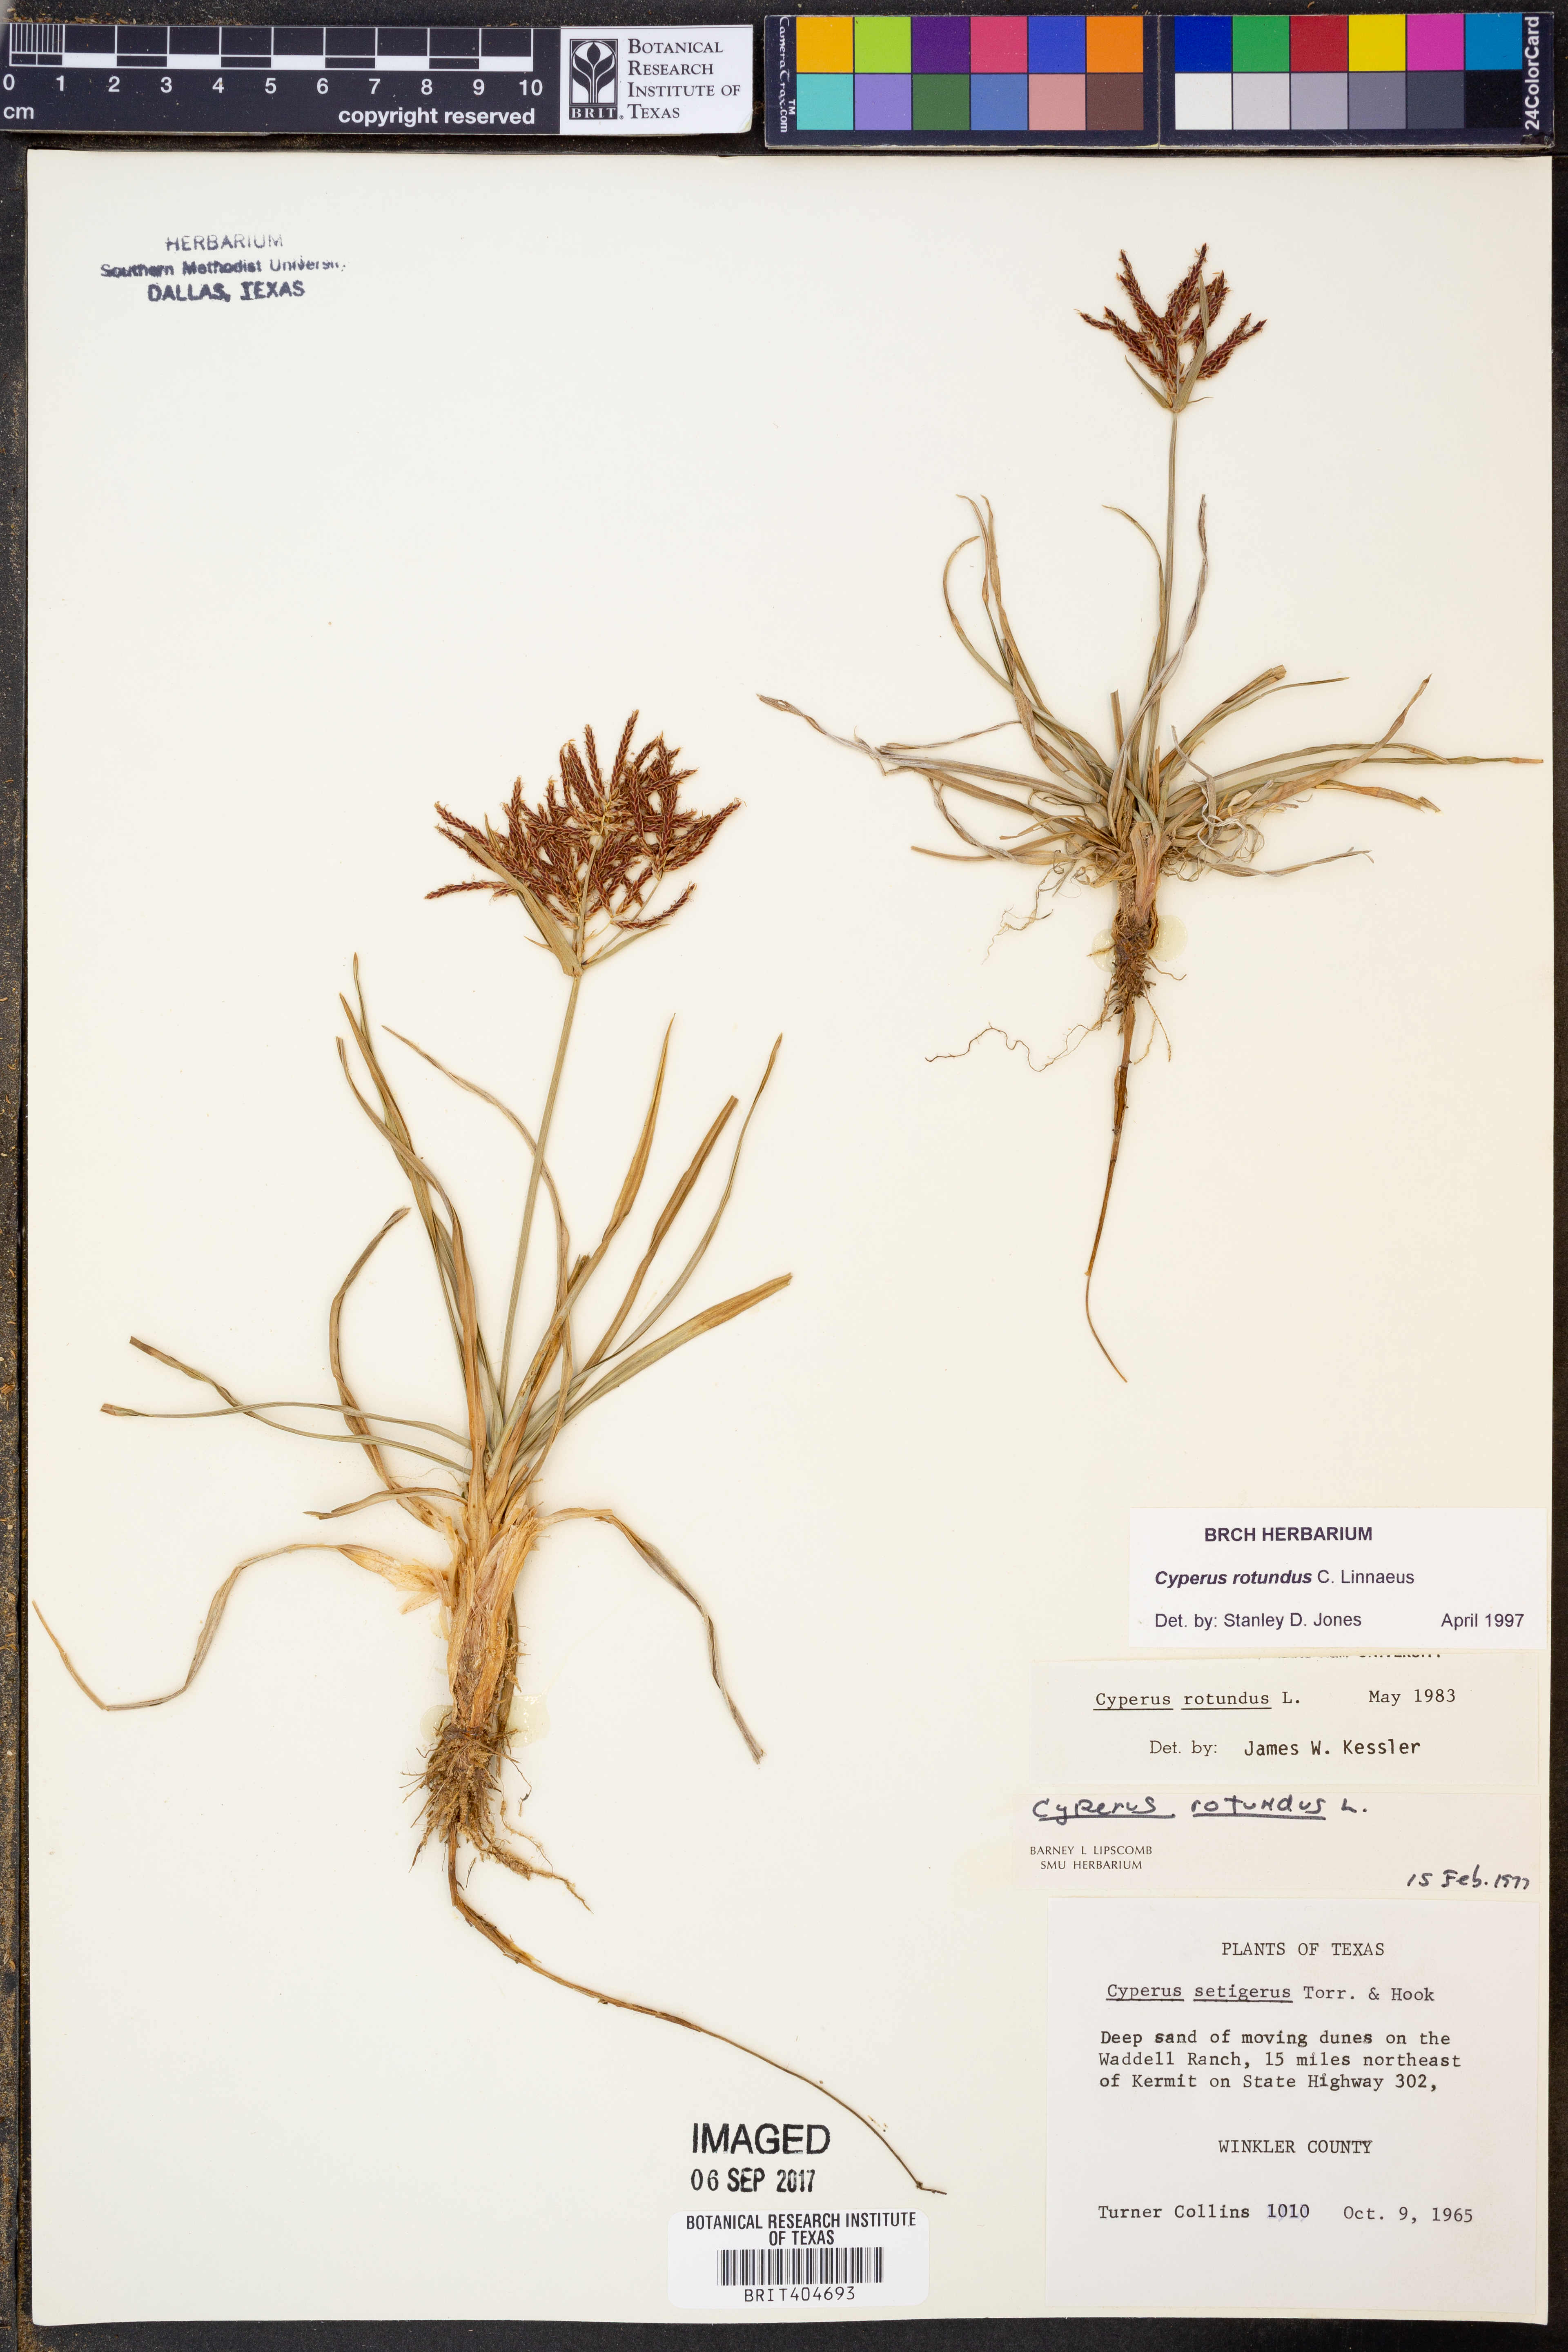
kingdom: Plantae
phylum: Tracheophyta
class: Liliopsida
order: Poales
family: Cyperaceae
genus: Cyperus
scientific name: Cyperus rotundus
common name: Nutgrass
